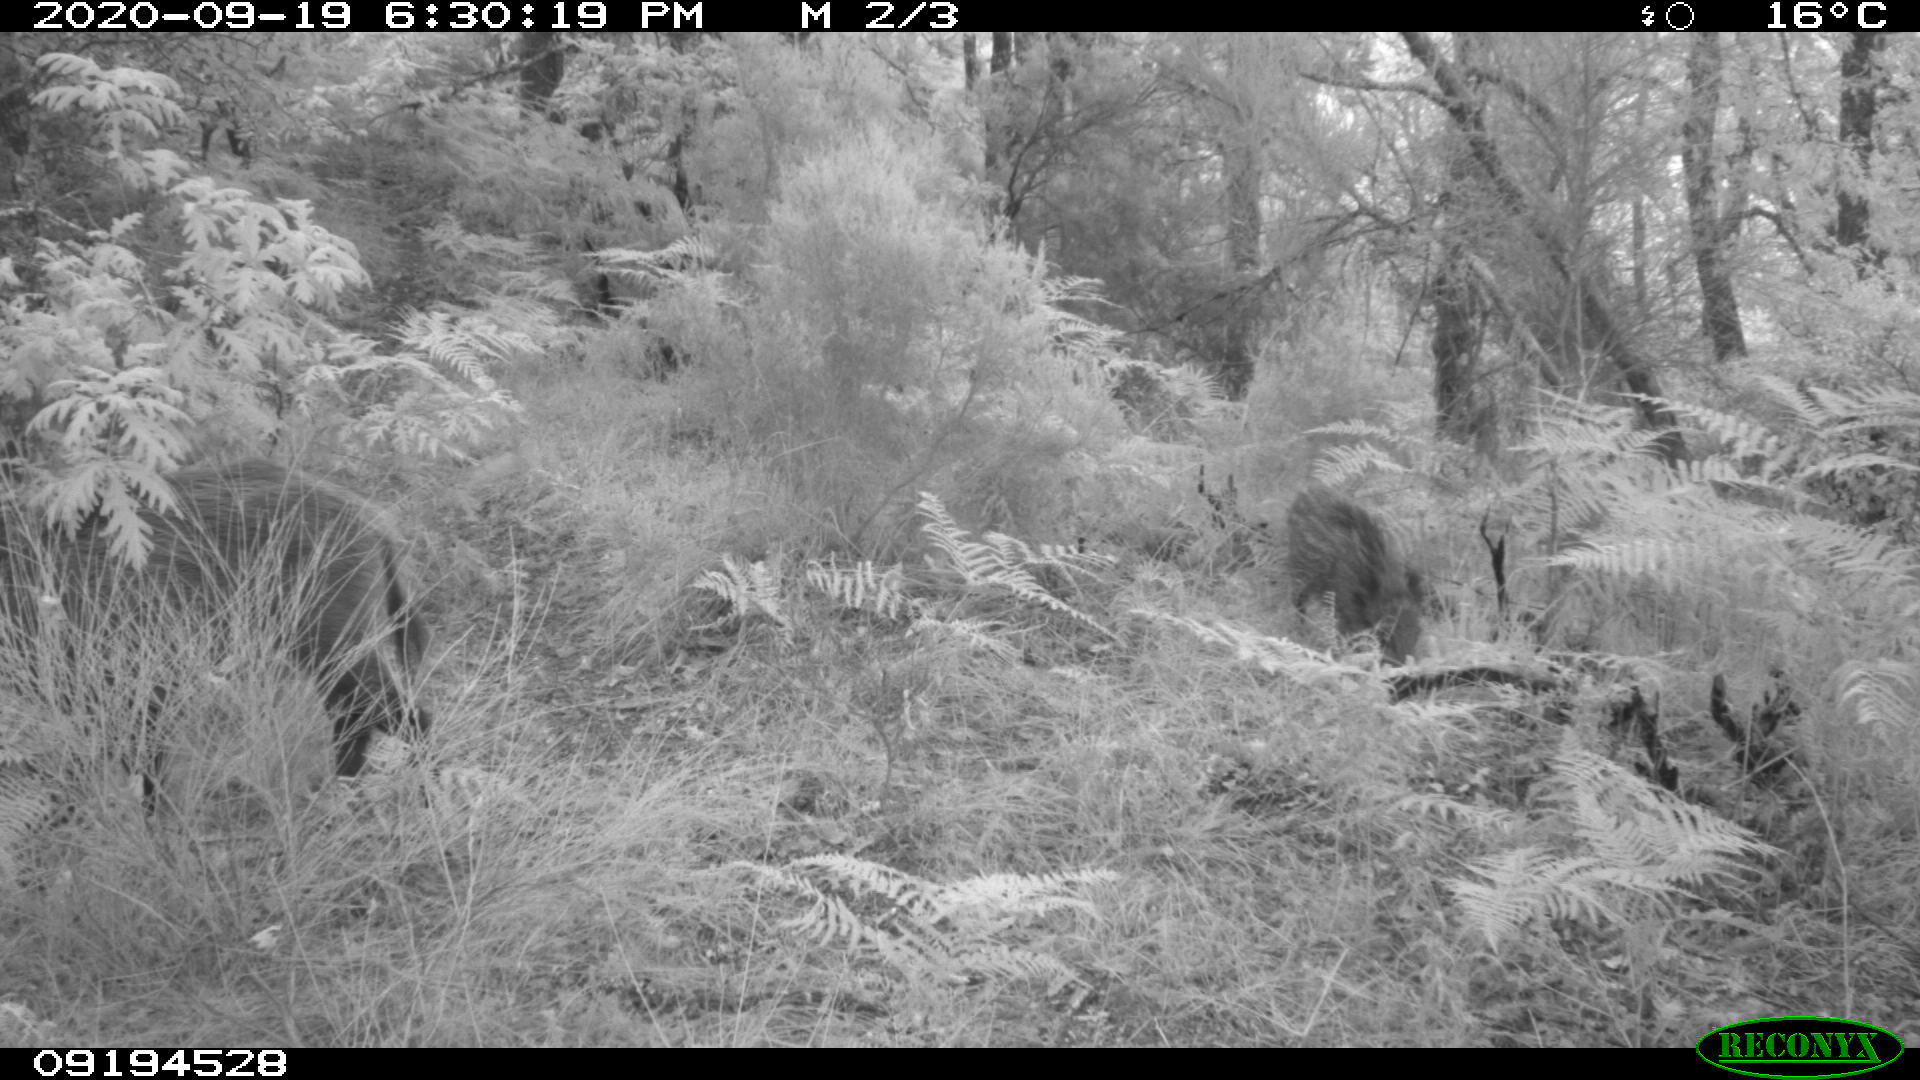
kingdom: Animalia
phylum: Chordata
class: Mammalia
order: Artiodactyla
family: Suidae
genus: Sus
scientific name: Sus scrofa
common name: Wild boar
